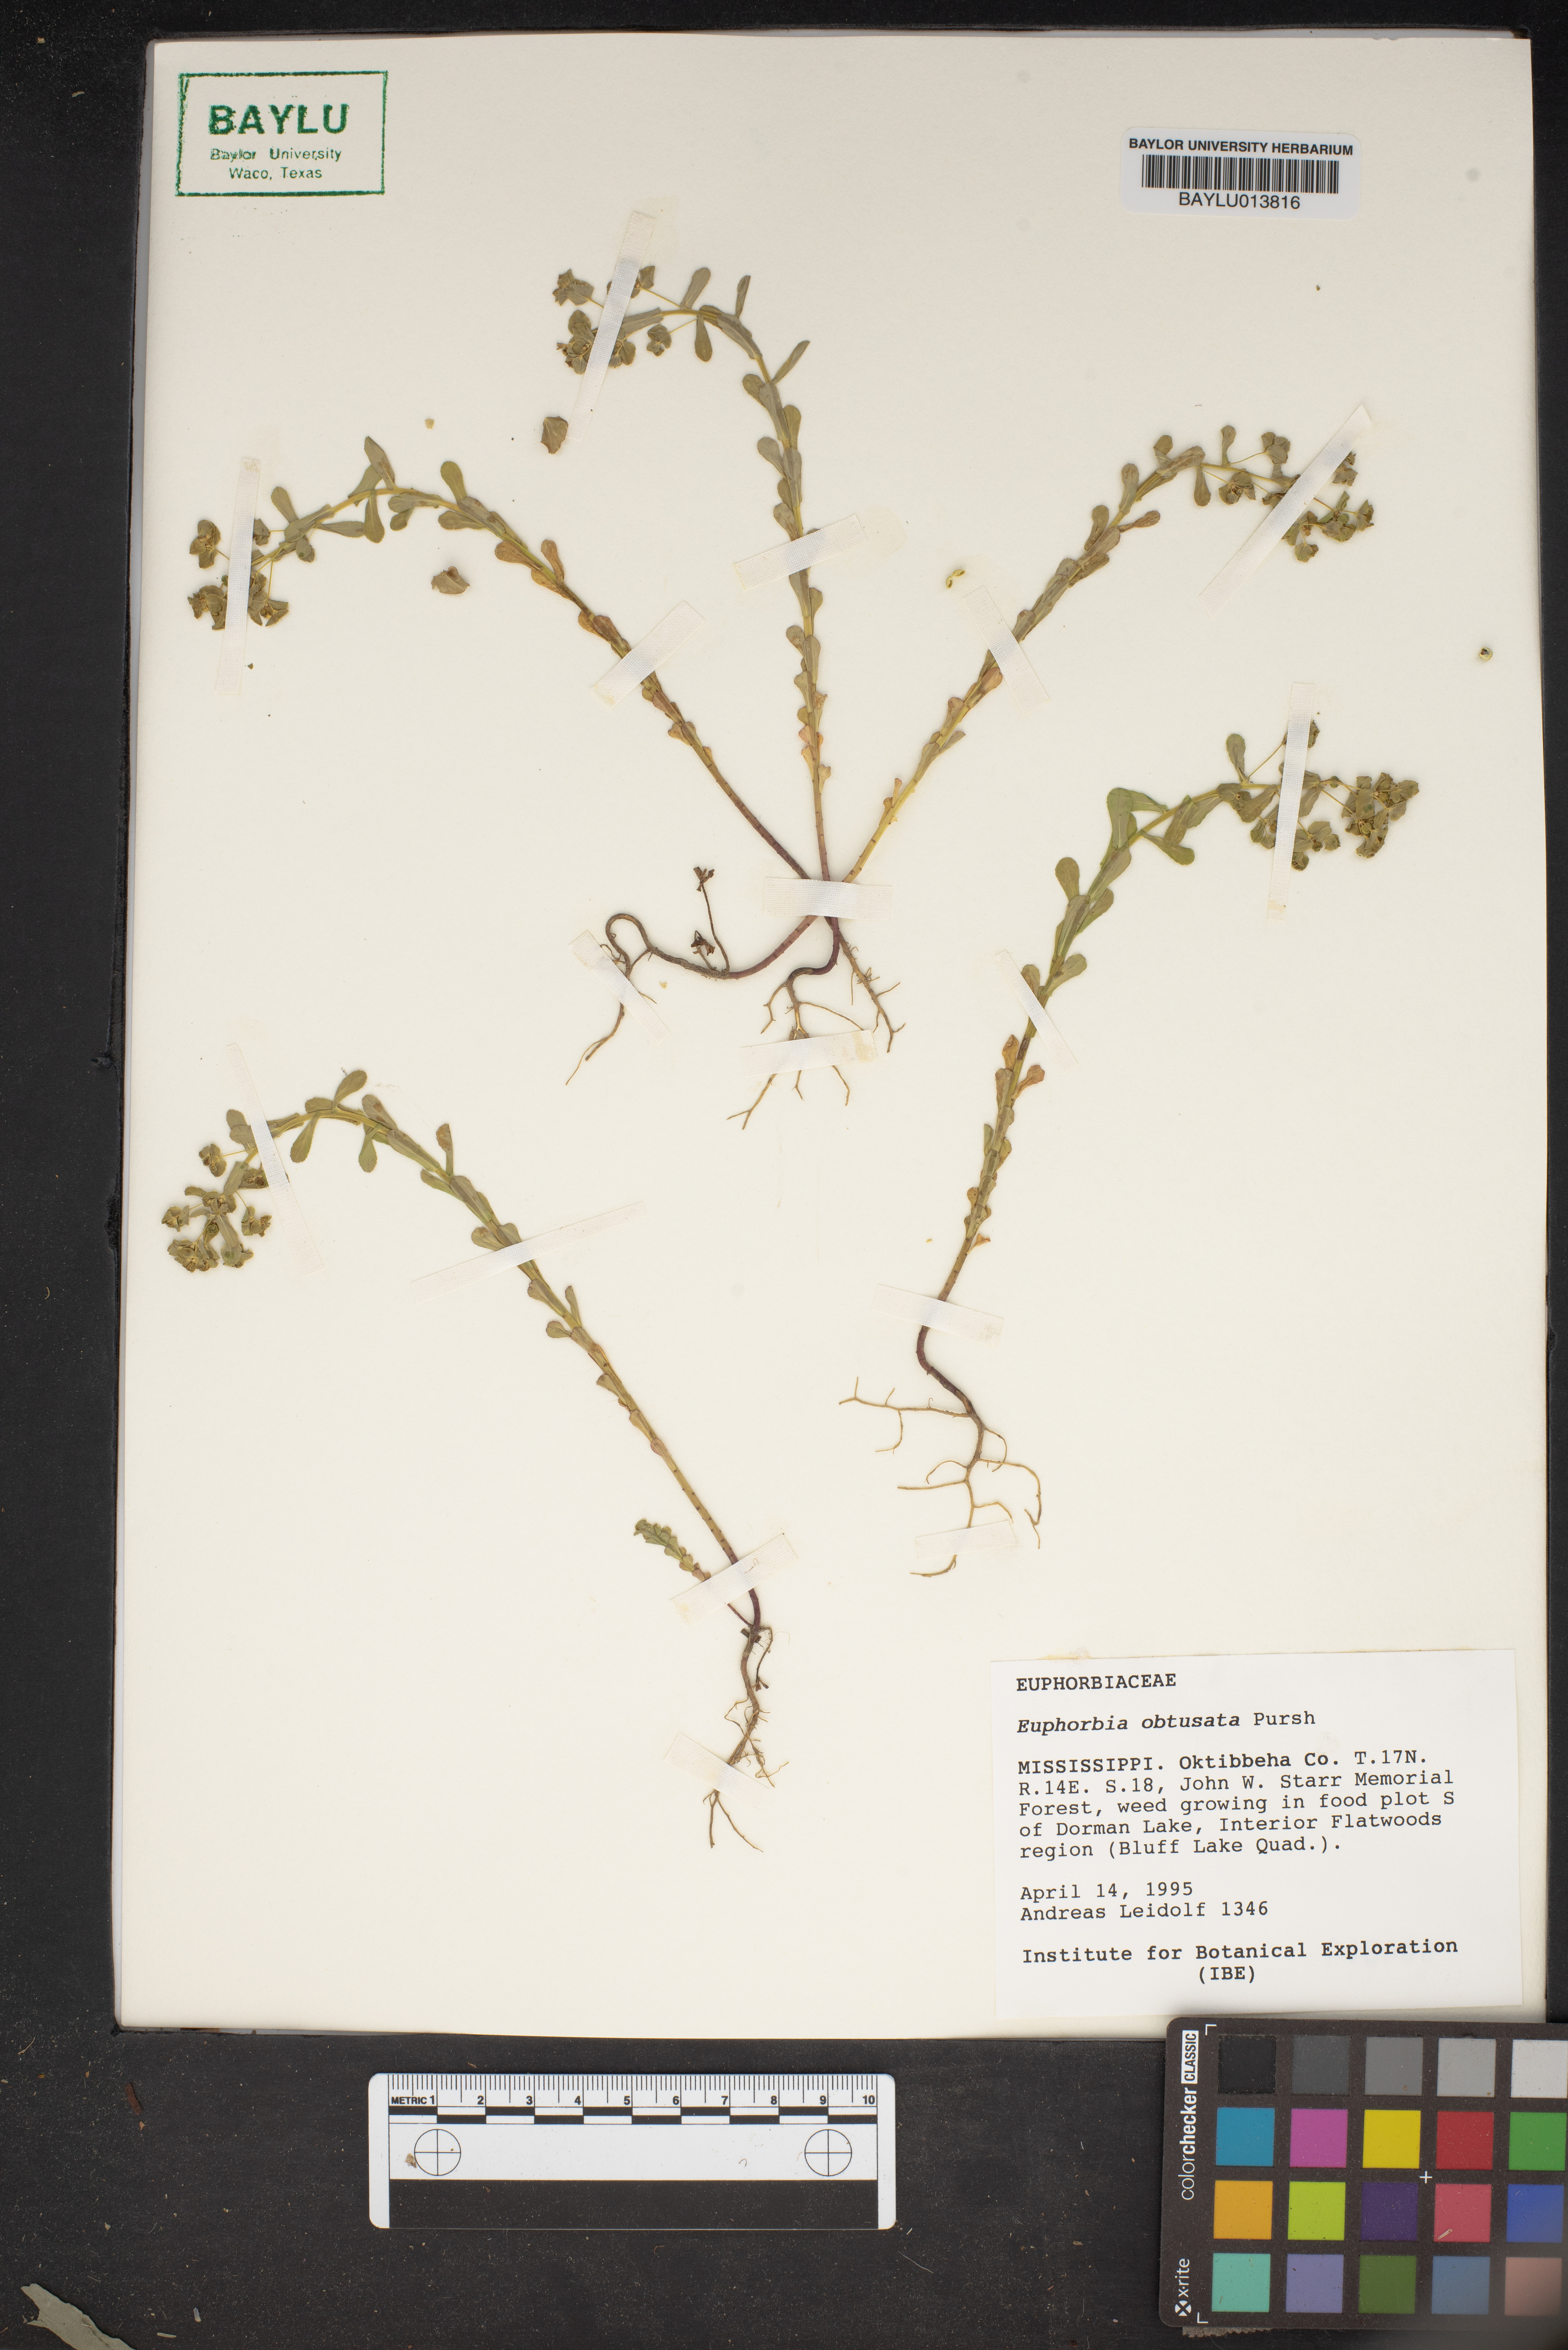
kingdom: Plantae
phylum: Tracheophyta
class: Magnoliopsida
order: Malpighiales
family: Euphorbiaceae
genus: Euphorbia
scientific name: Euphorbia spathulata
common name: Blunt spurge
